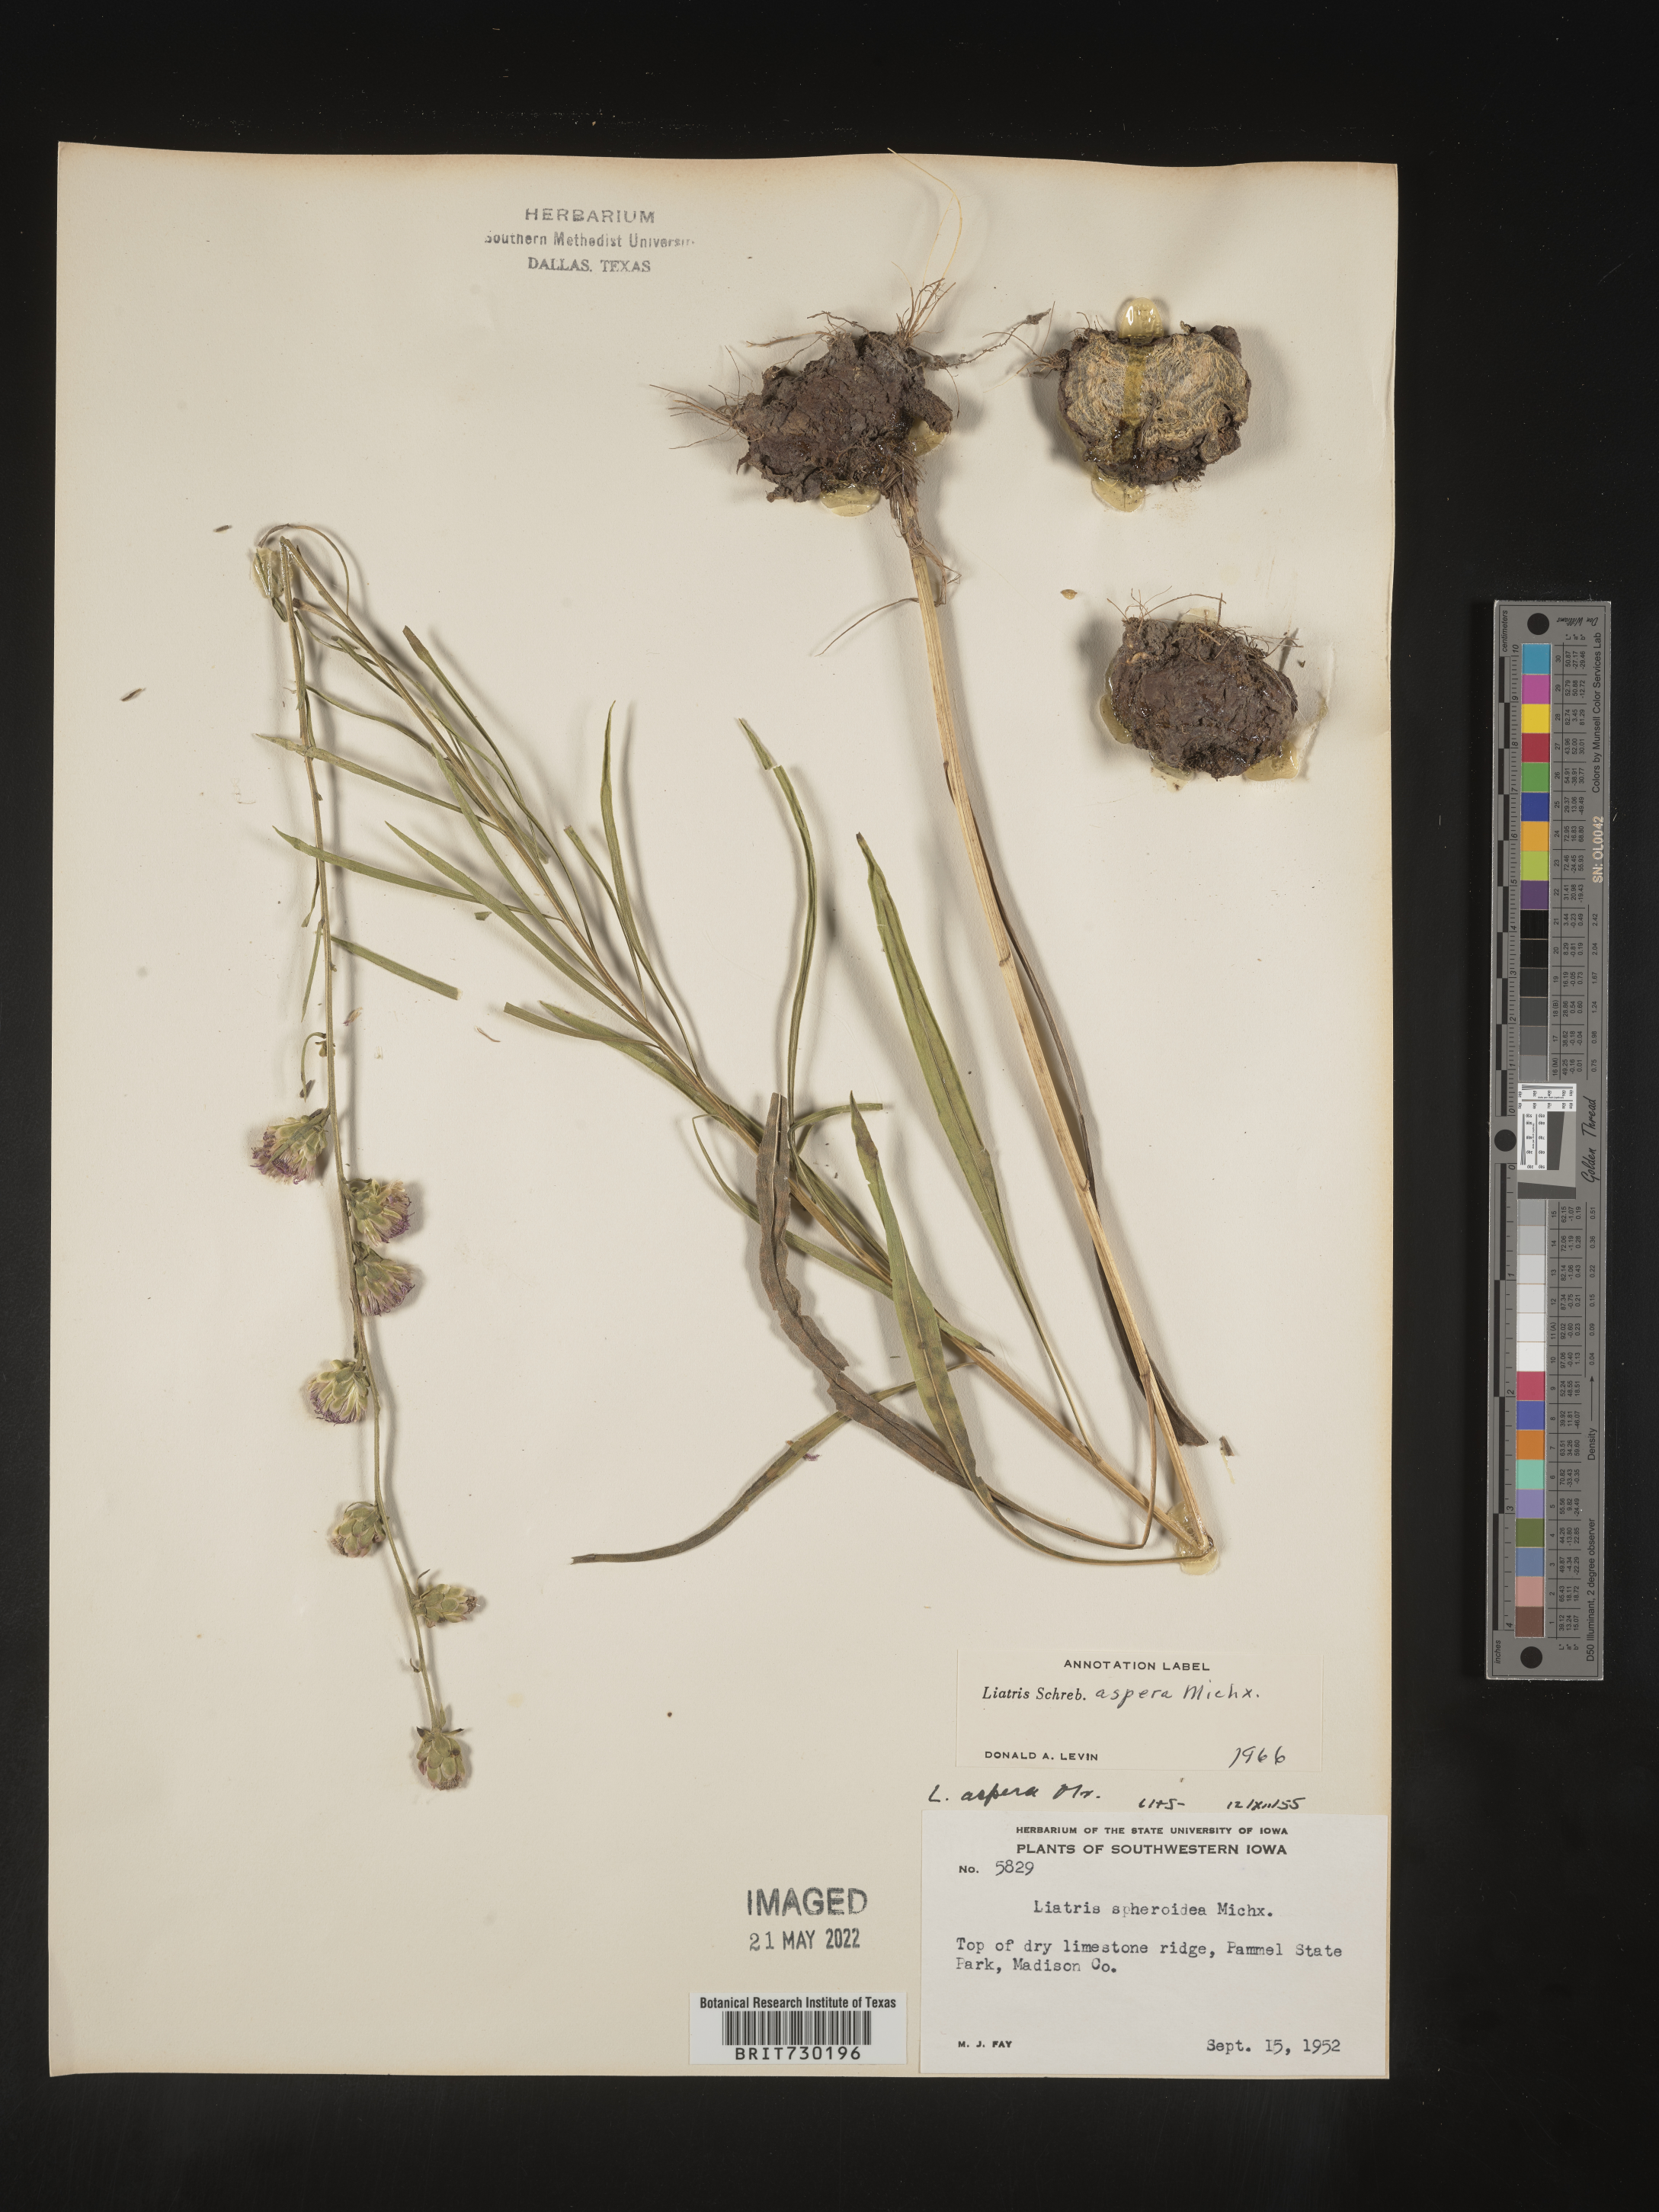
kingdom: Plantae
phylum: Tracheophyta
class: Magnoliopsida
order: Asterales
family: Asteraceae
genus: Liatris
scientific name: Liatris aspera
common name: Lacerate blazing-star
